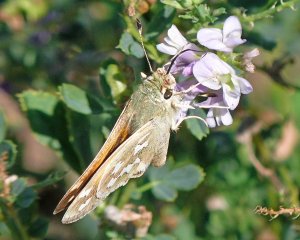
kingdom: Animalia
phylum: Arthropoda
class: Insecta
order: Lepidoptera
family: Hesperiidae
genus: Hesperia
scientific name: Hesperia comma
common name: Western Branded Skipper
